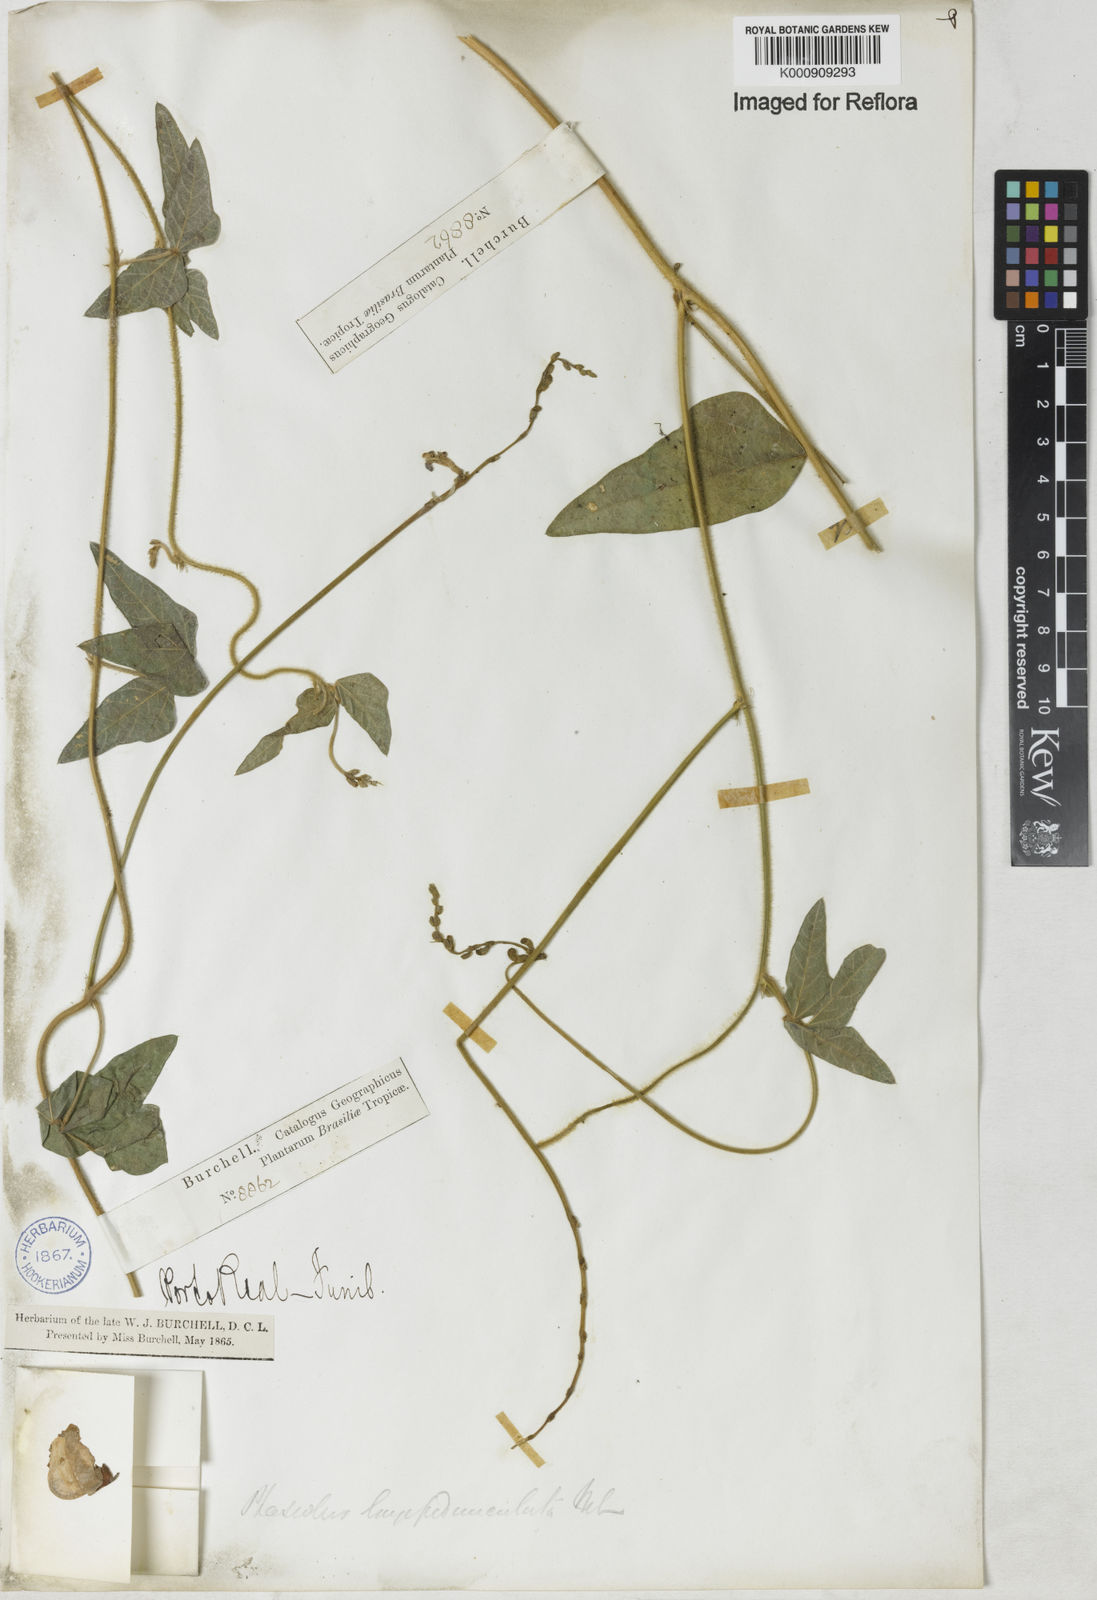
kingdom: Plantae
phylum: Tracheophyta
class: Magnoliopsida
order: Fabales
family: Fabaceae
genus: Macroptilium
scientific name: Macroptilium
